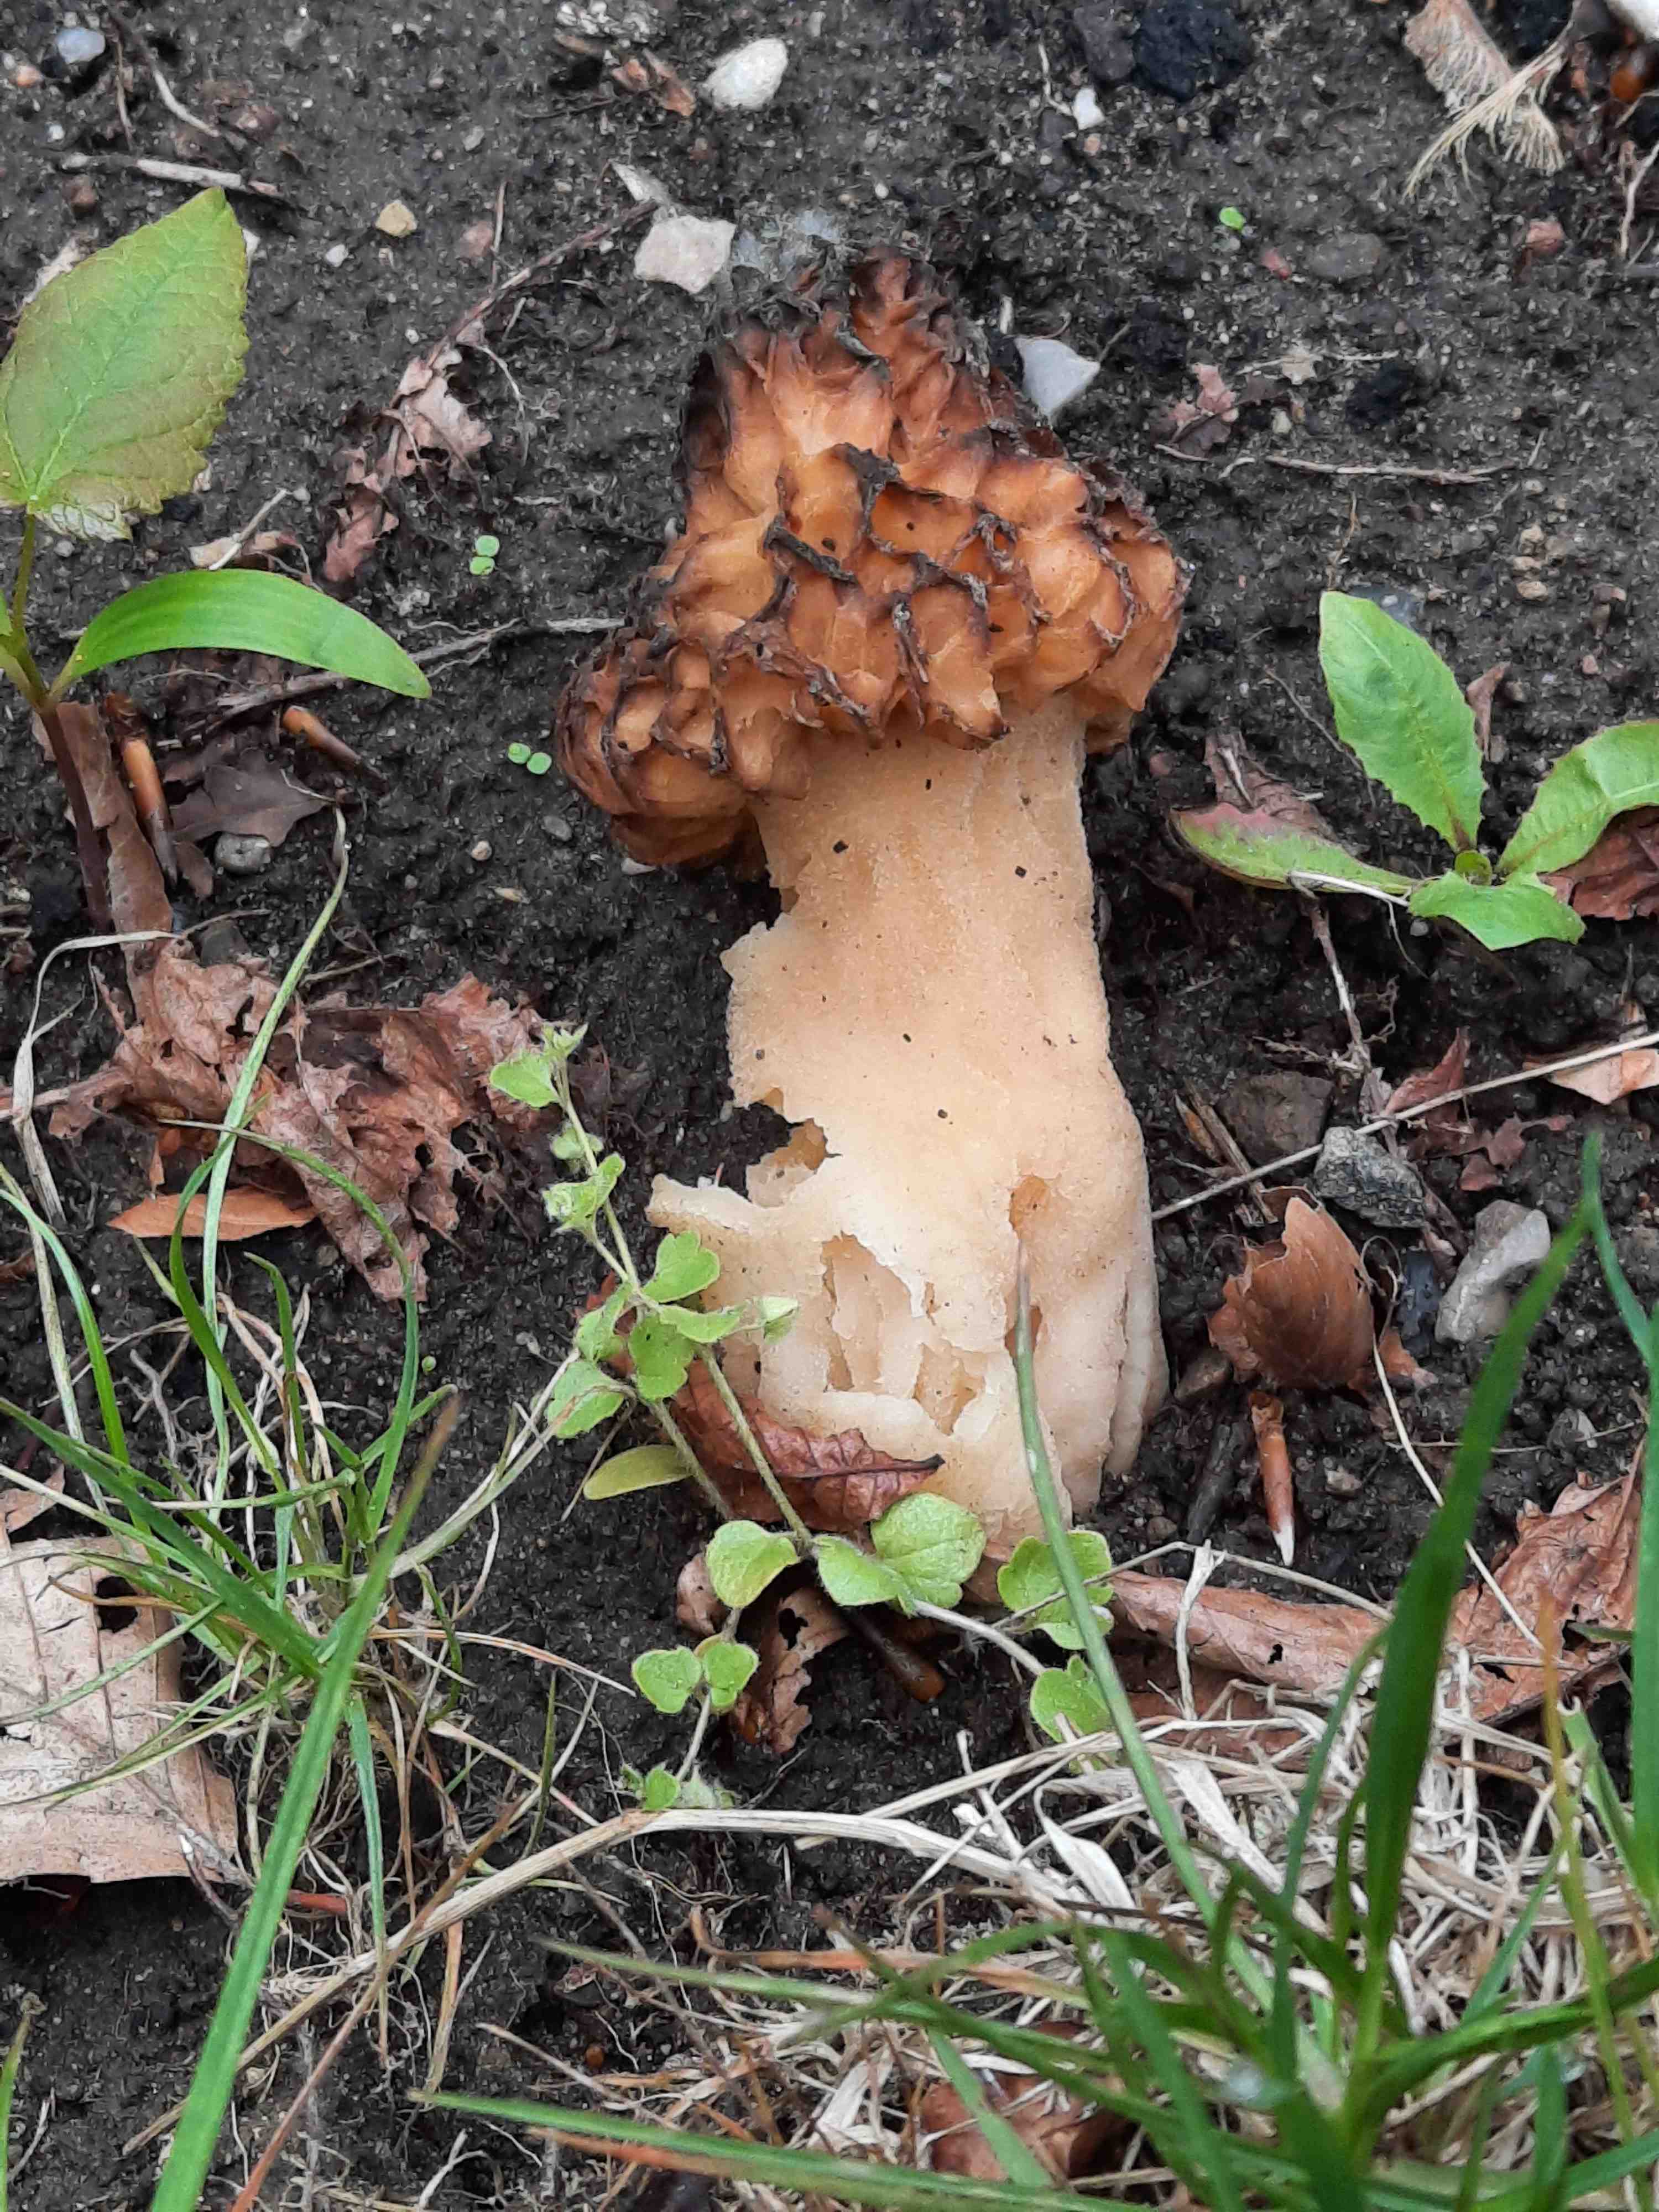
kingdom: Fungi
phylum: Ascomycota
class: Pezizomycetes
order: Pezizales
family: Morchellaceae
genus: Morchella
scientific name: Morchella esculenta
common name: spiselig morkel
